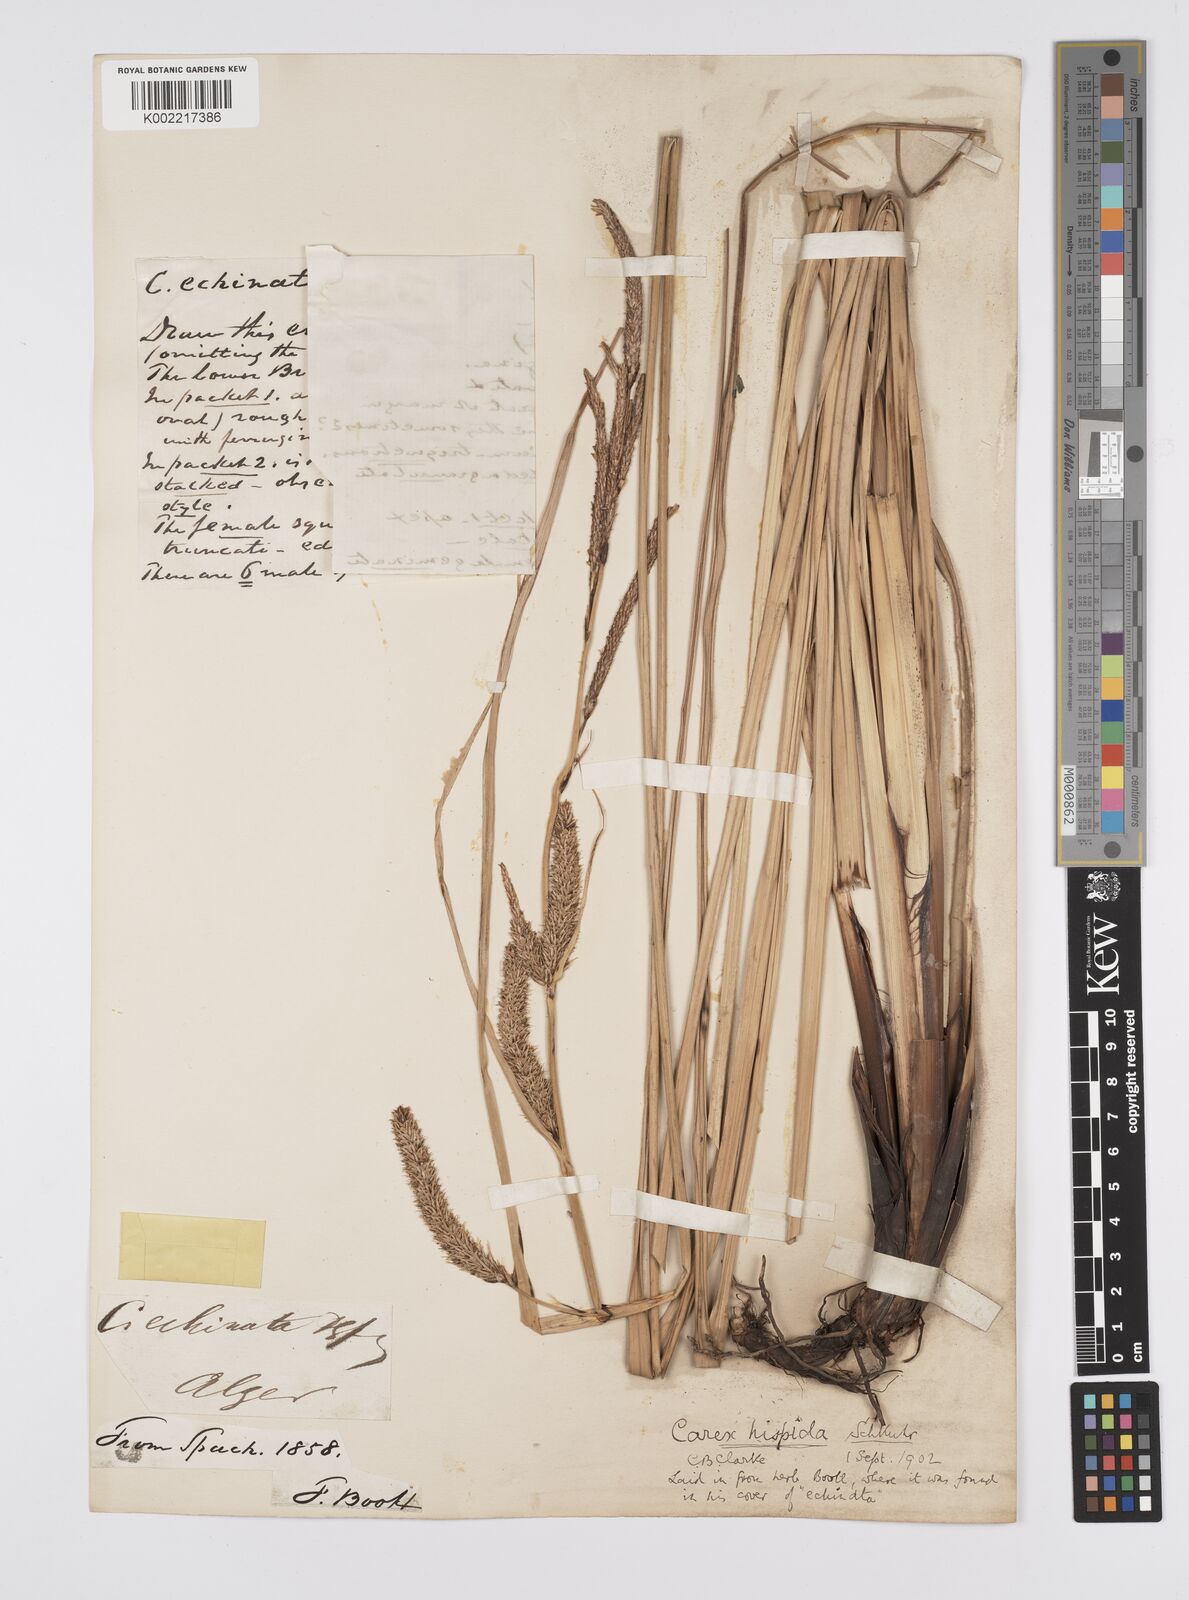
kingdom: Plantae
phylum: Tracheophyta
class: Liliopsida
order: Poales
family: Cyperaceae
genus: Carex
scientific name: Carex hispida
